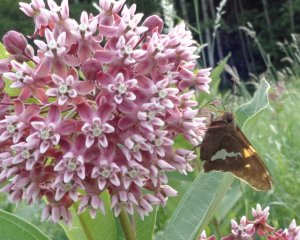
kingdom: Animalia
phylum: Arthropoda
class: Insecta
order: Lepidoptera
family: Hesperiidae
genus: Epargyreus
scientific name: Epargyreus clarus
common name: Silver-spotted Skipper
